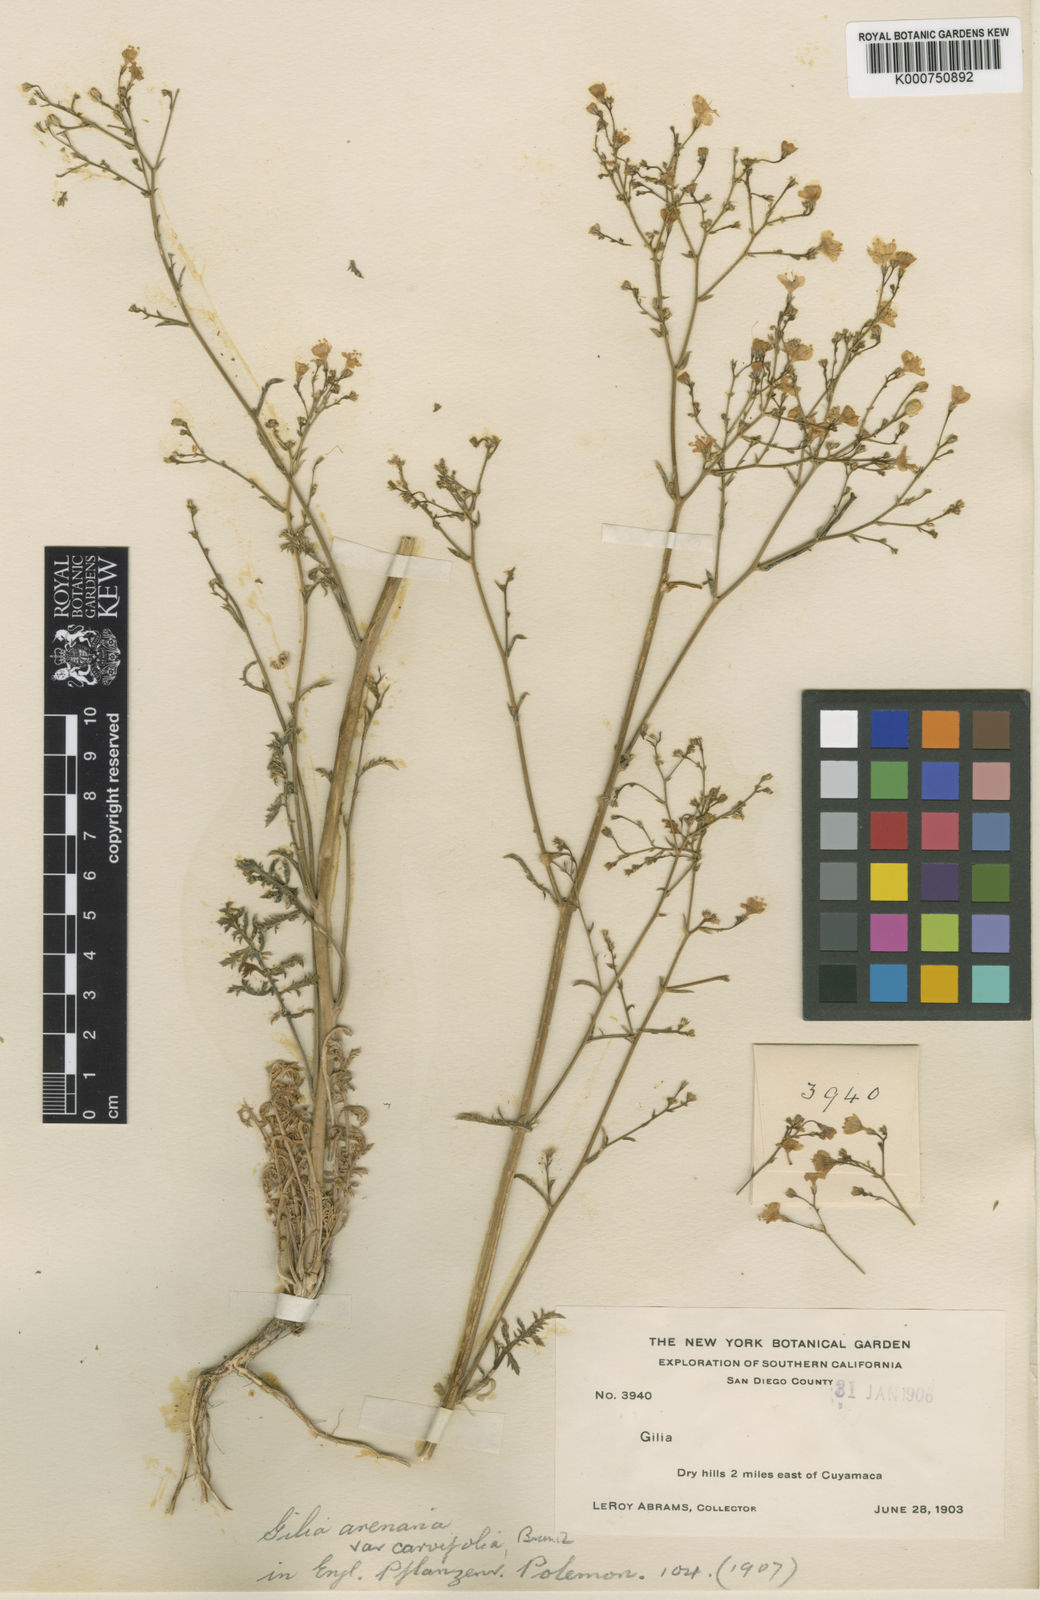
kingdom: Plantae
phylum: Tracheophyta
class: Magnoliopsida
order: Ericales
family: Polemoniaceae
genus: Gilia
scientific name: Gilia tenuiflora
